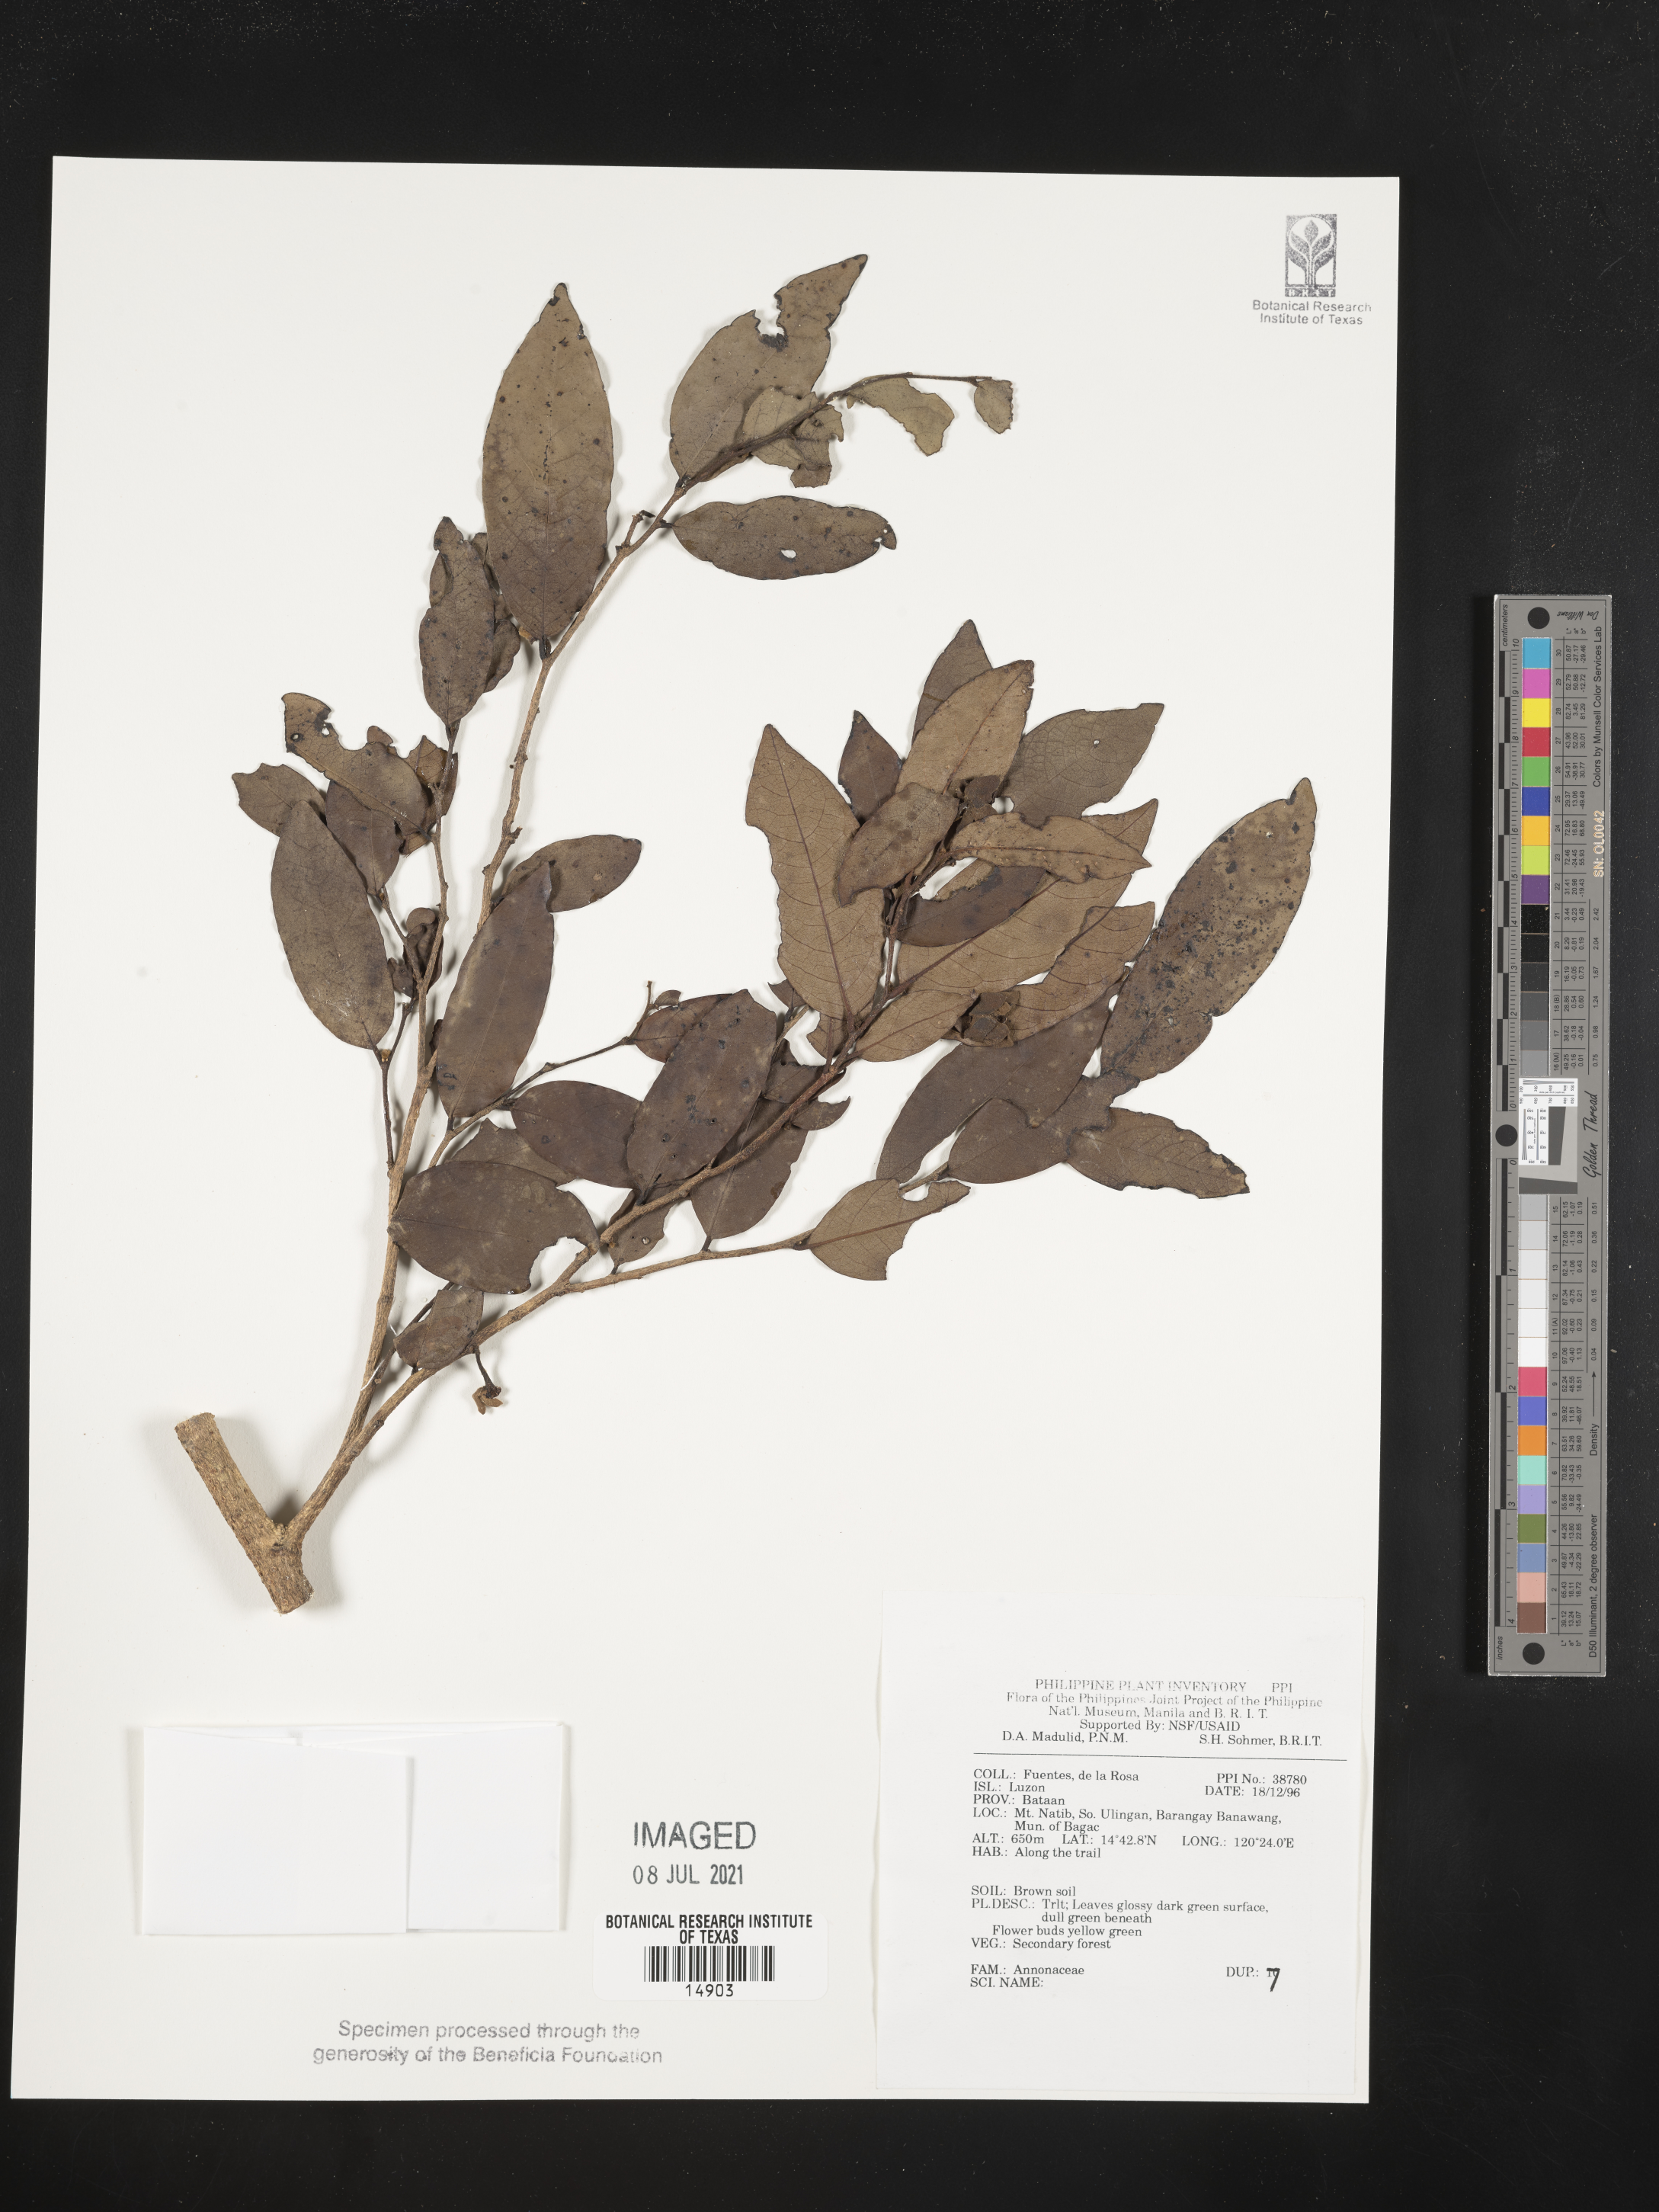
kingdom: Plantae
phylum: Tracheophyta
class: Magnoliopsida
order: Magnoliales
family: Annonaceae
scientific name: Annonaceae
